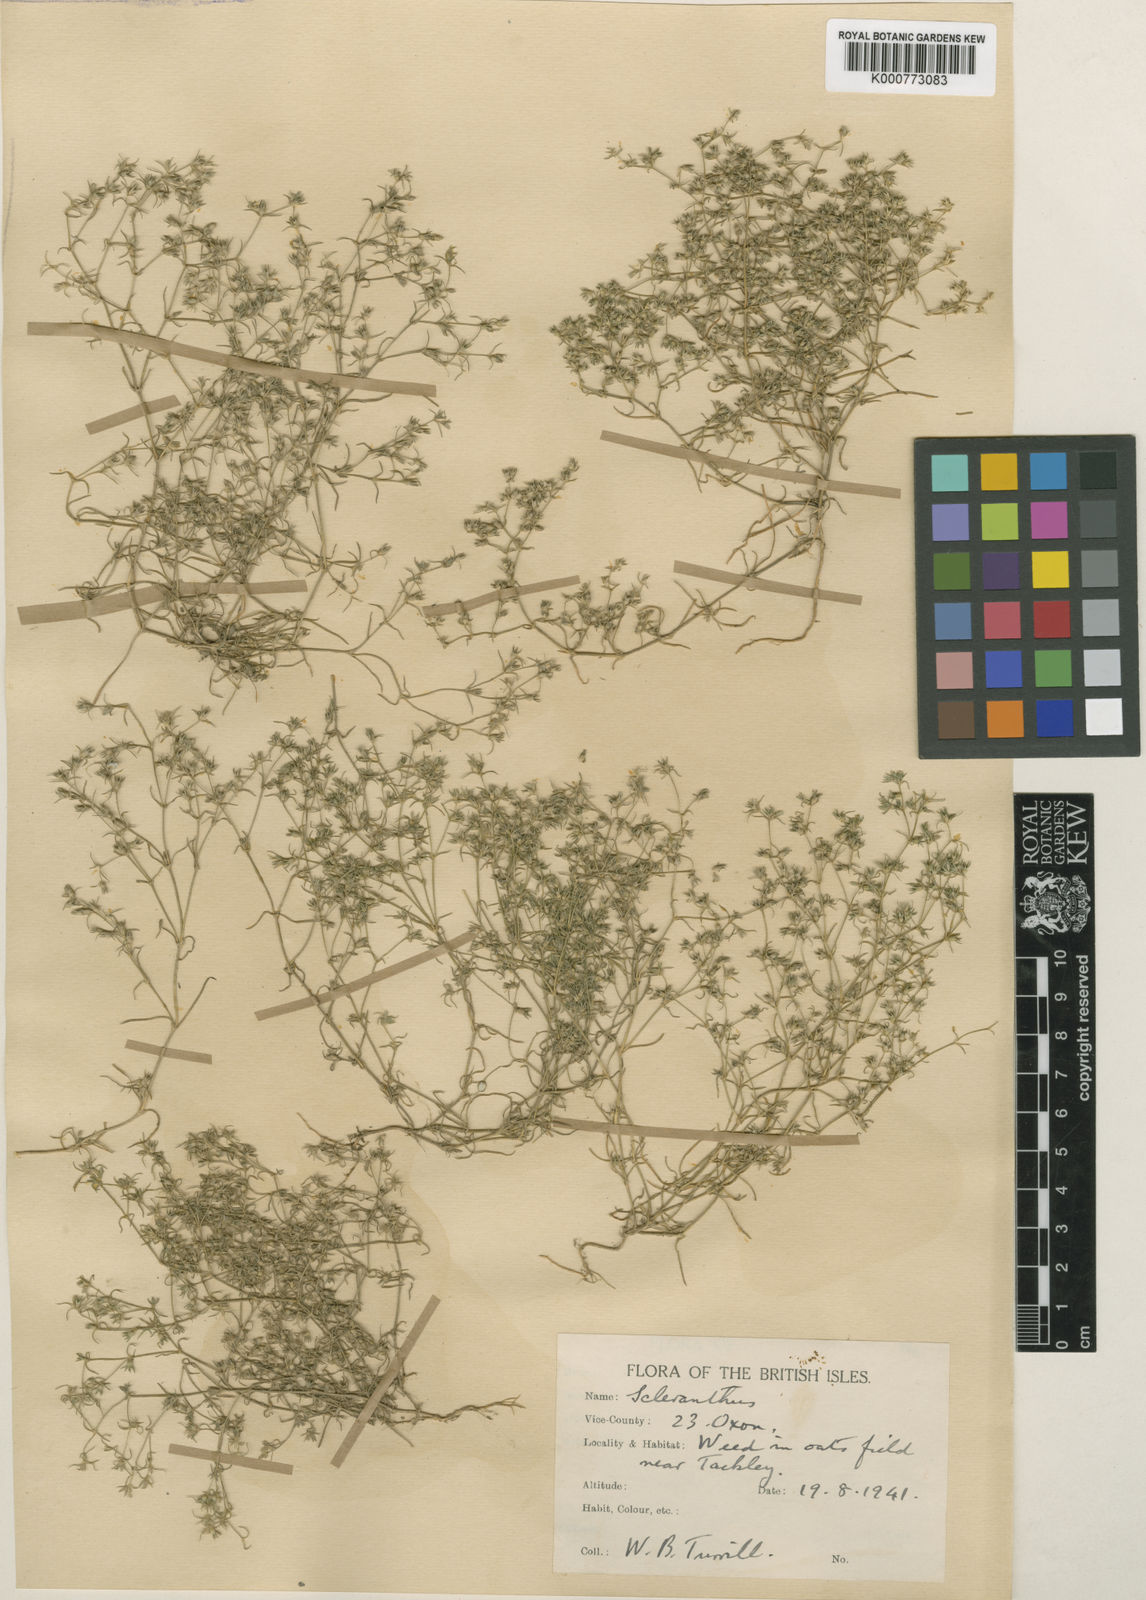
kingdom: Plantae
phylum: Tracheophyta
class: Magnoliopsida
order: Caryophyllales
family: Caryophyllaceae
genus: Scleranthus
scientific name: Scleranthus annuus
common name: Annual knawel
